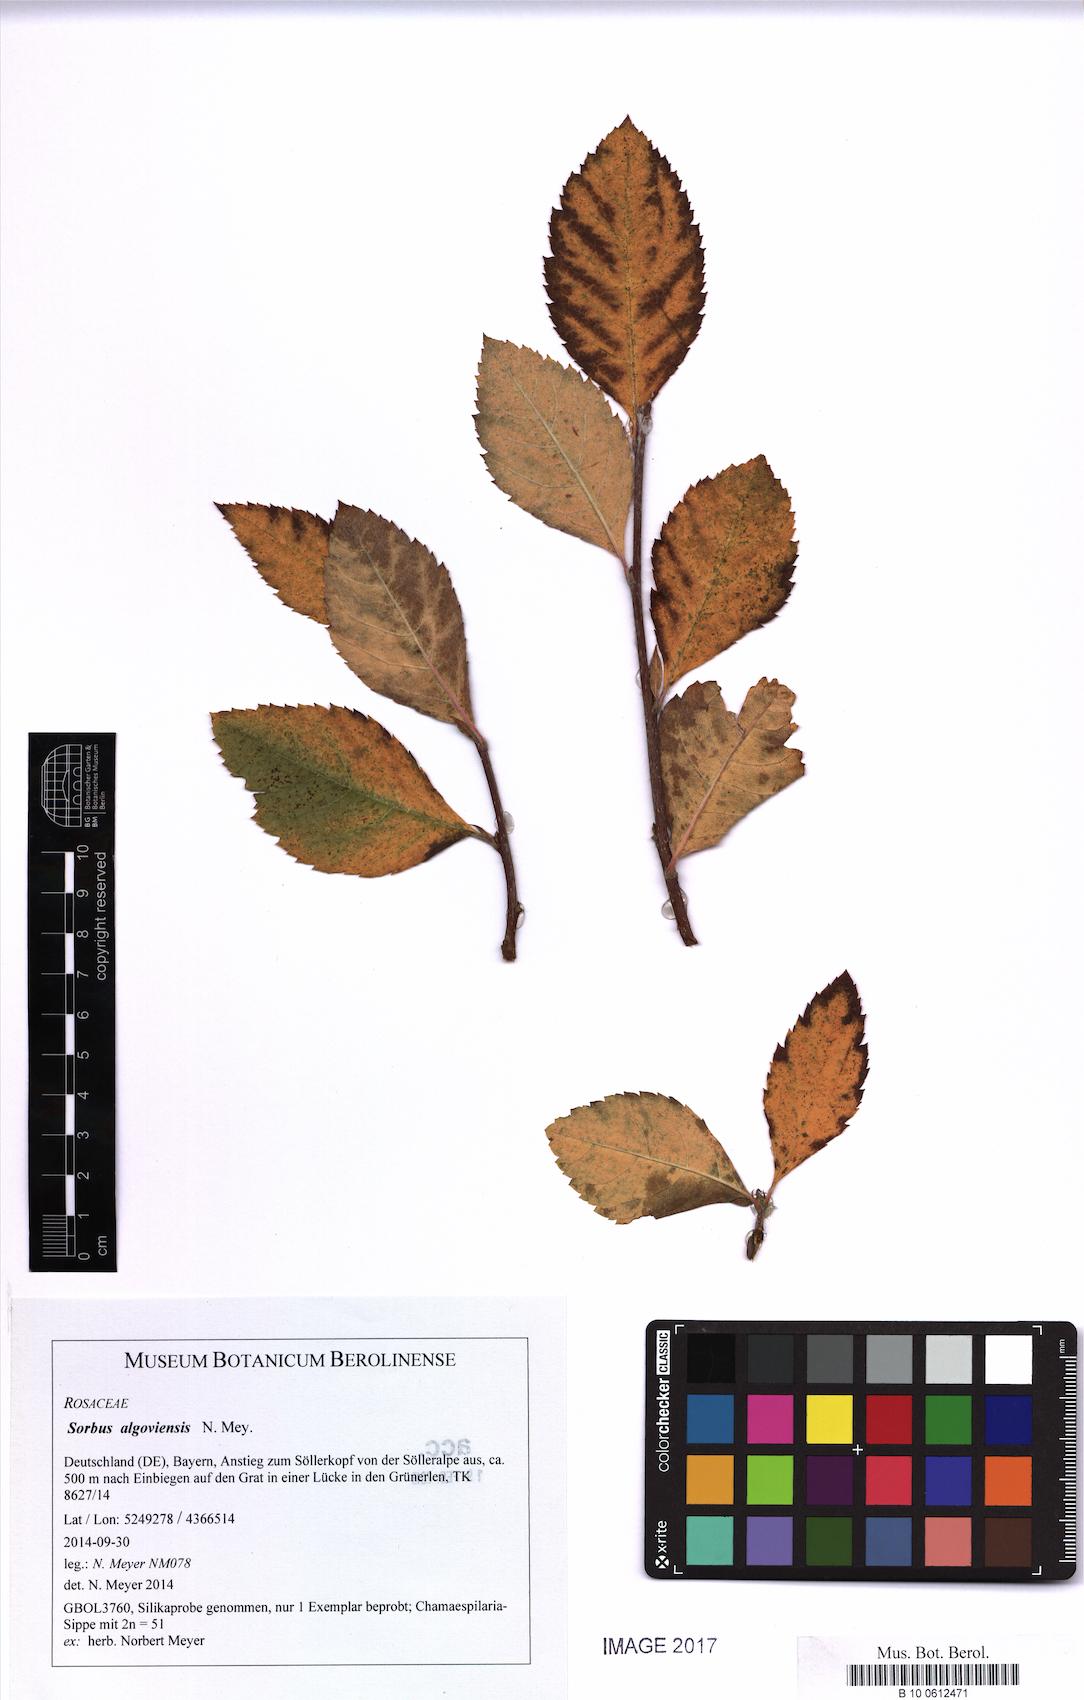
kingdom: Plantae
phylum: Tracheophyta
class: Magnoliopsida
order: Rosales
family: Rosaceae
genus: Majovskya
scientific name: Majovskya algoviensis
